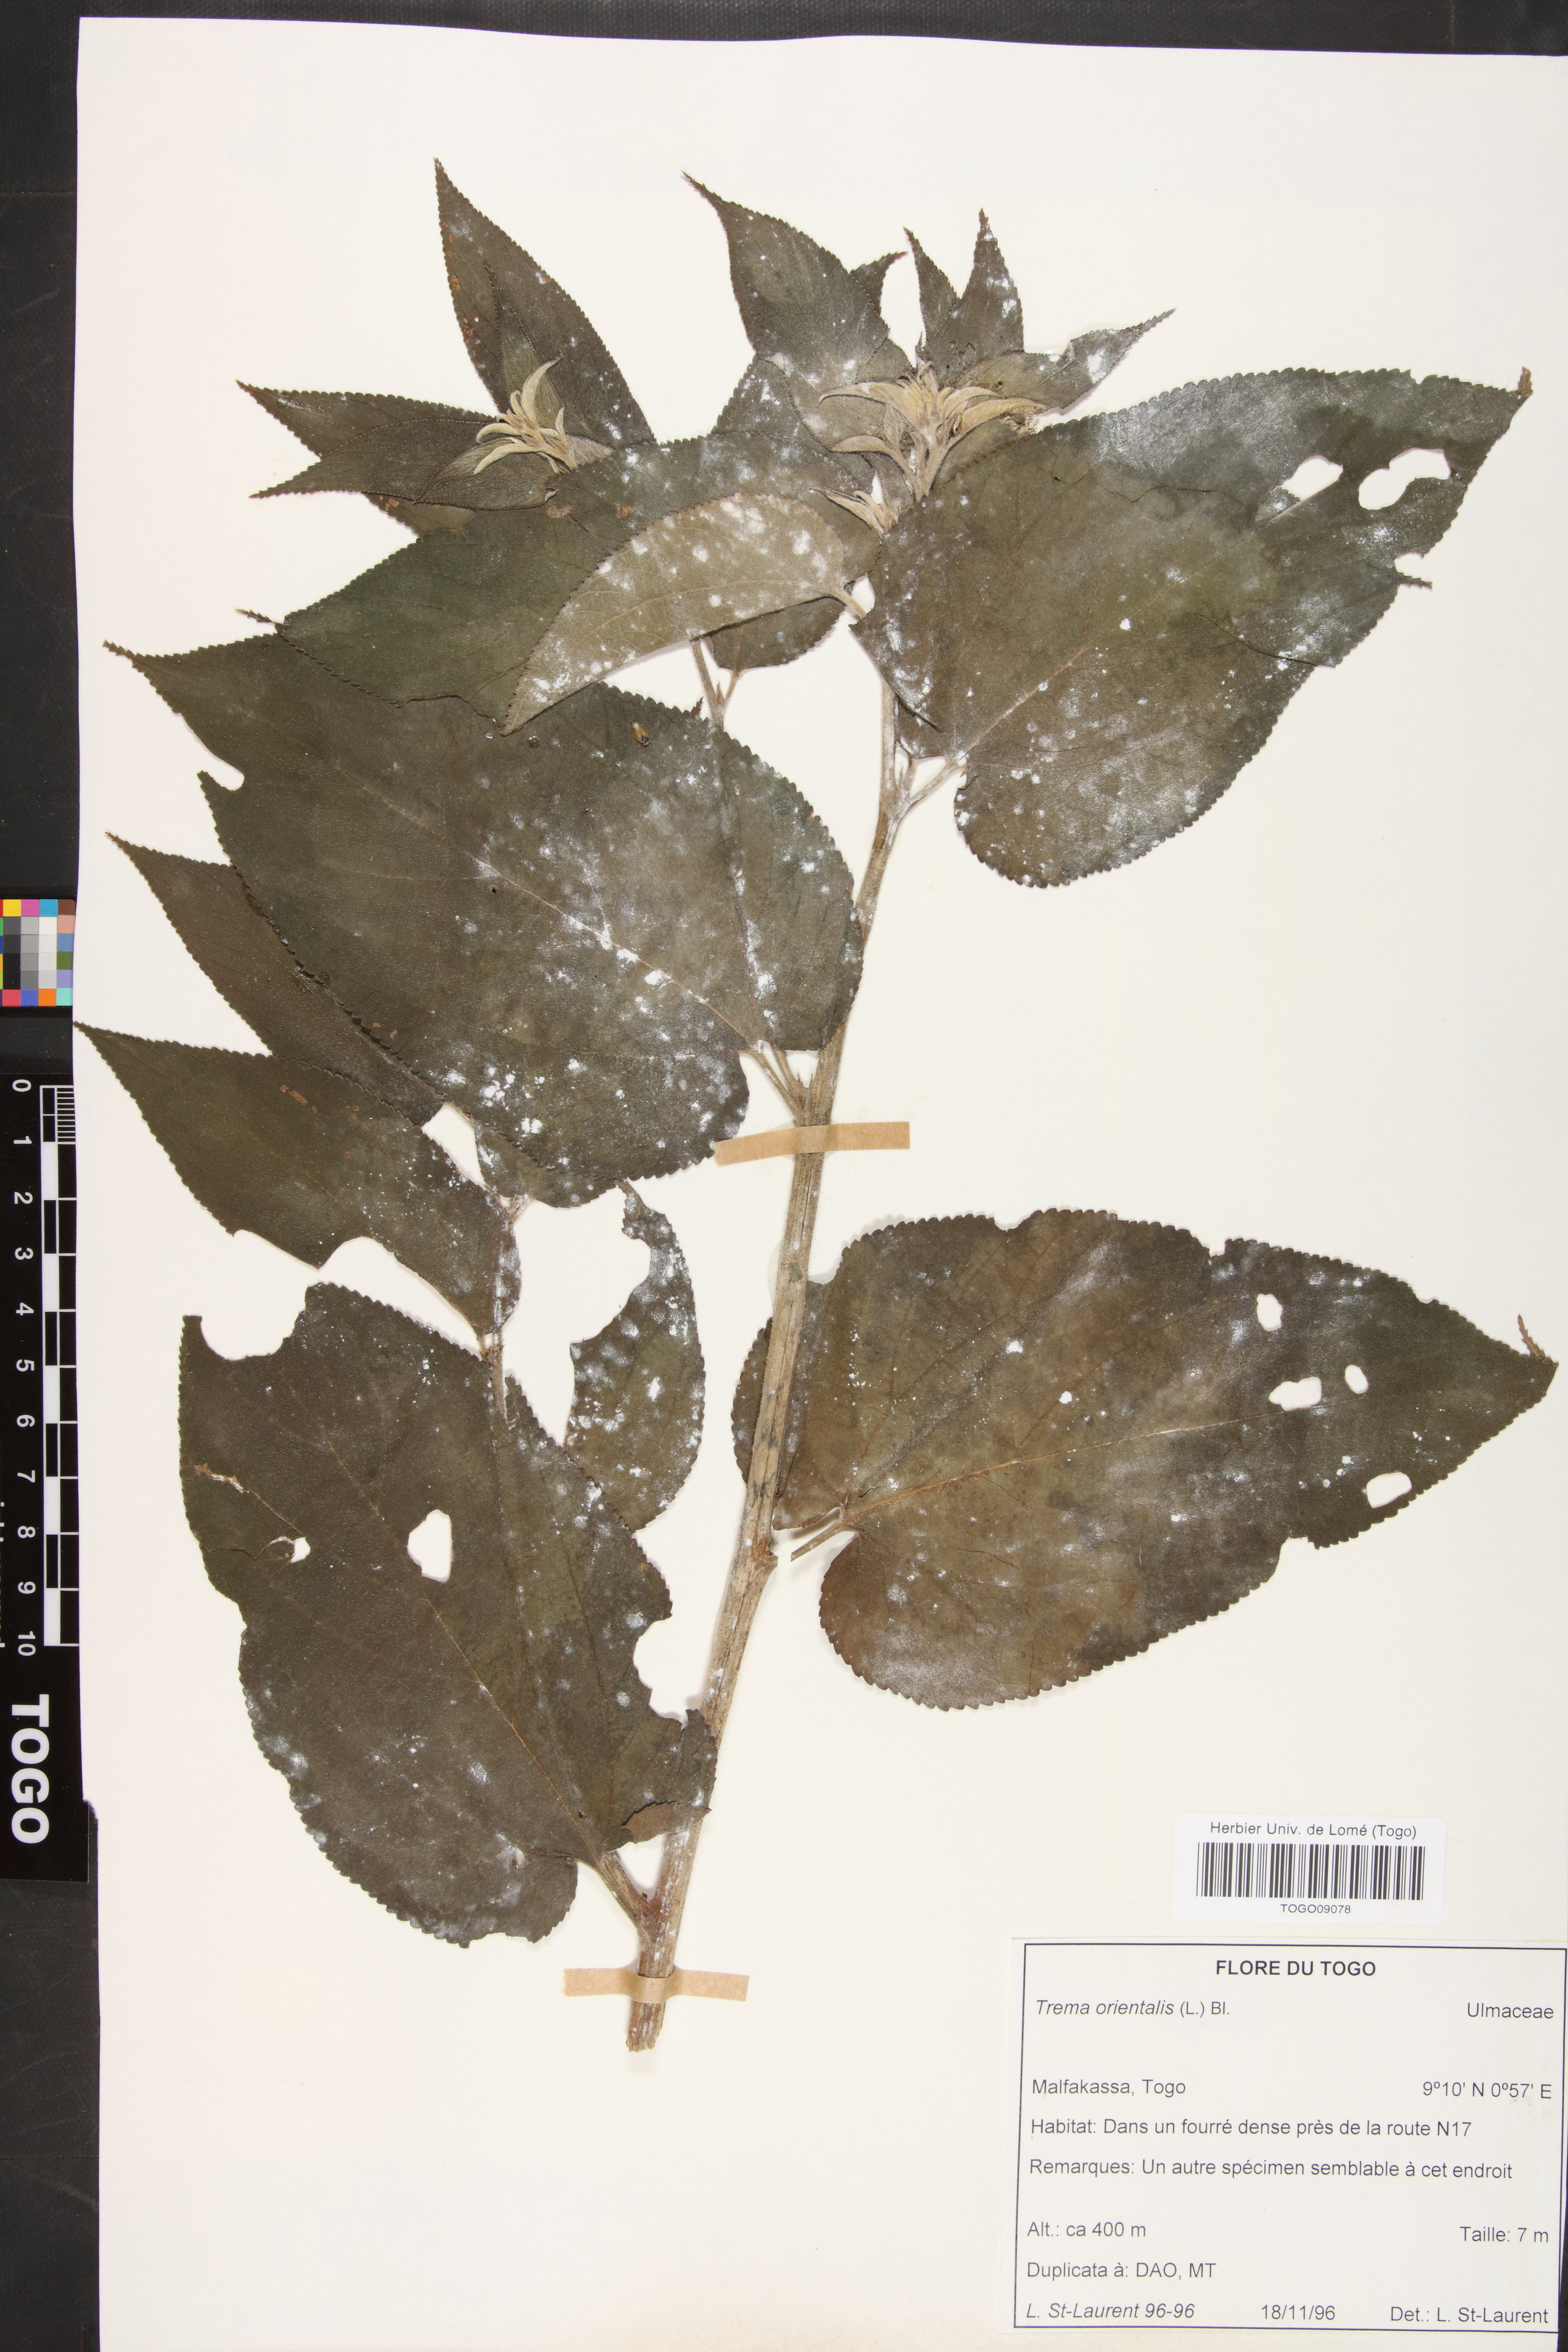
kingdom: Plantae
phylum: Tracheophyta
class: Magnoliopsida
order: Rosales
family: Cannabaceae
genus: Trema
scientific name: Trema orientale
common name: Indian charcoal tree
